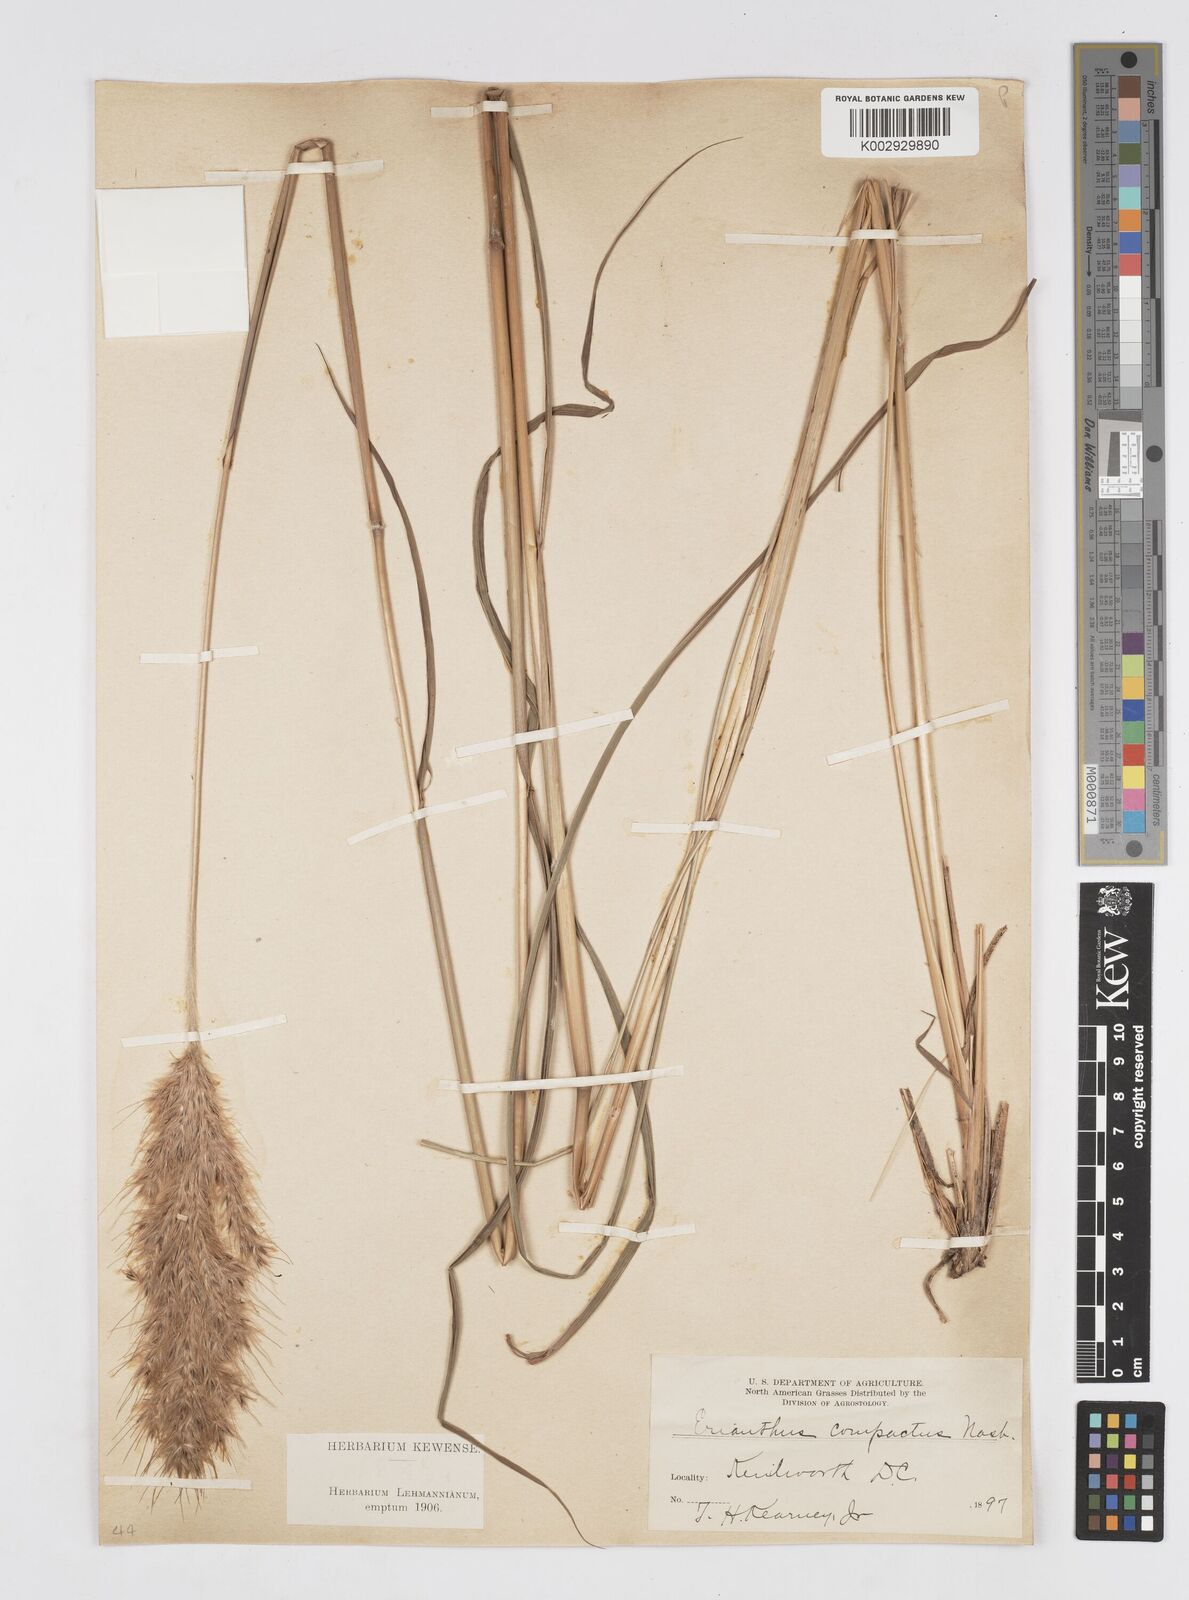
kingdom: Plantae
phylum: Tracheophyta
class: Liliopsida
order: Poales
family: Poaceae
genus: Erianthus
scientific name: Erianthus giganteus
